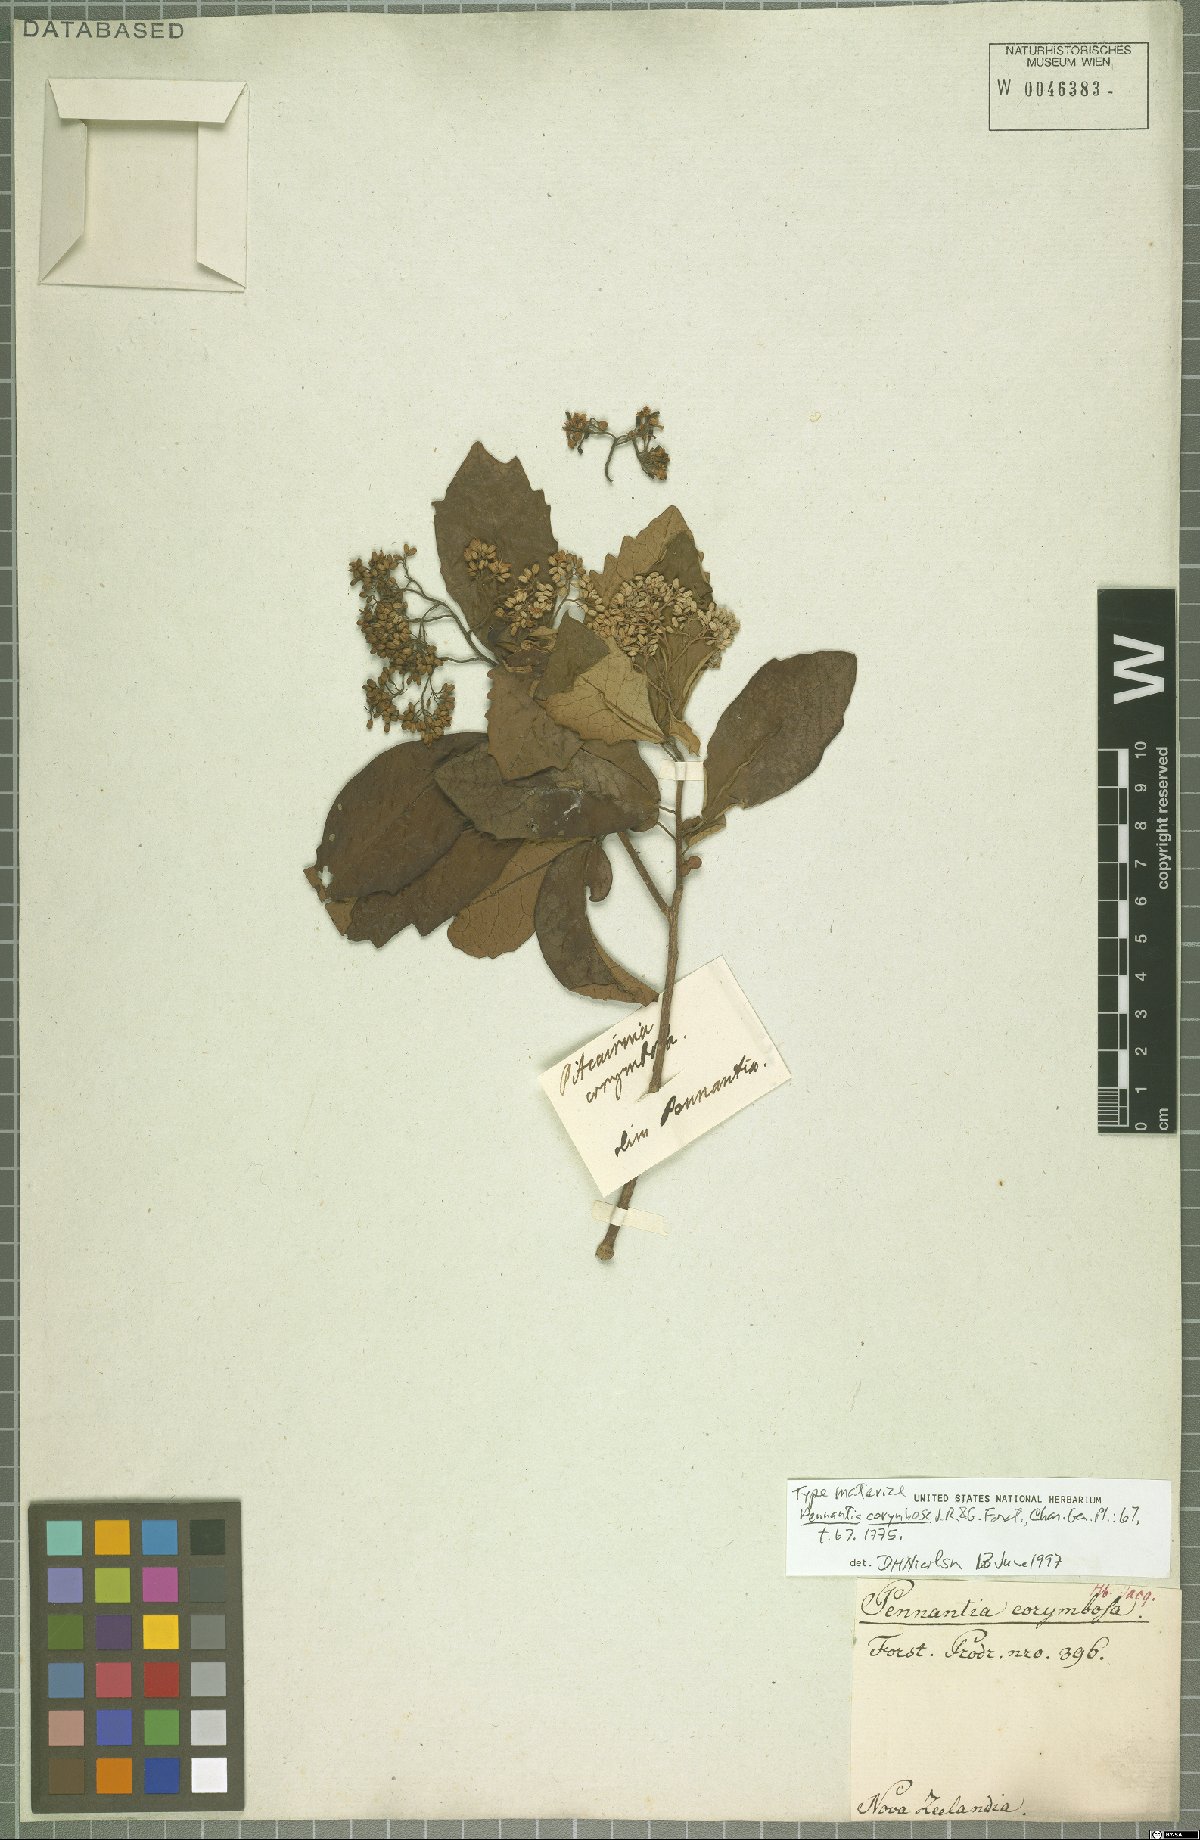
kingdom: Plantae
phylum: Tracheophyta
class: Magnoliopsida
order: Apiales
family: Pennantiaceae
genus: Pennantia
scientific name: Pennantia corymbosa
